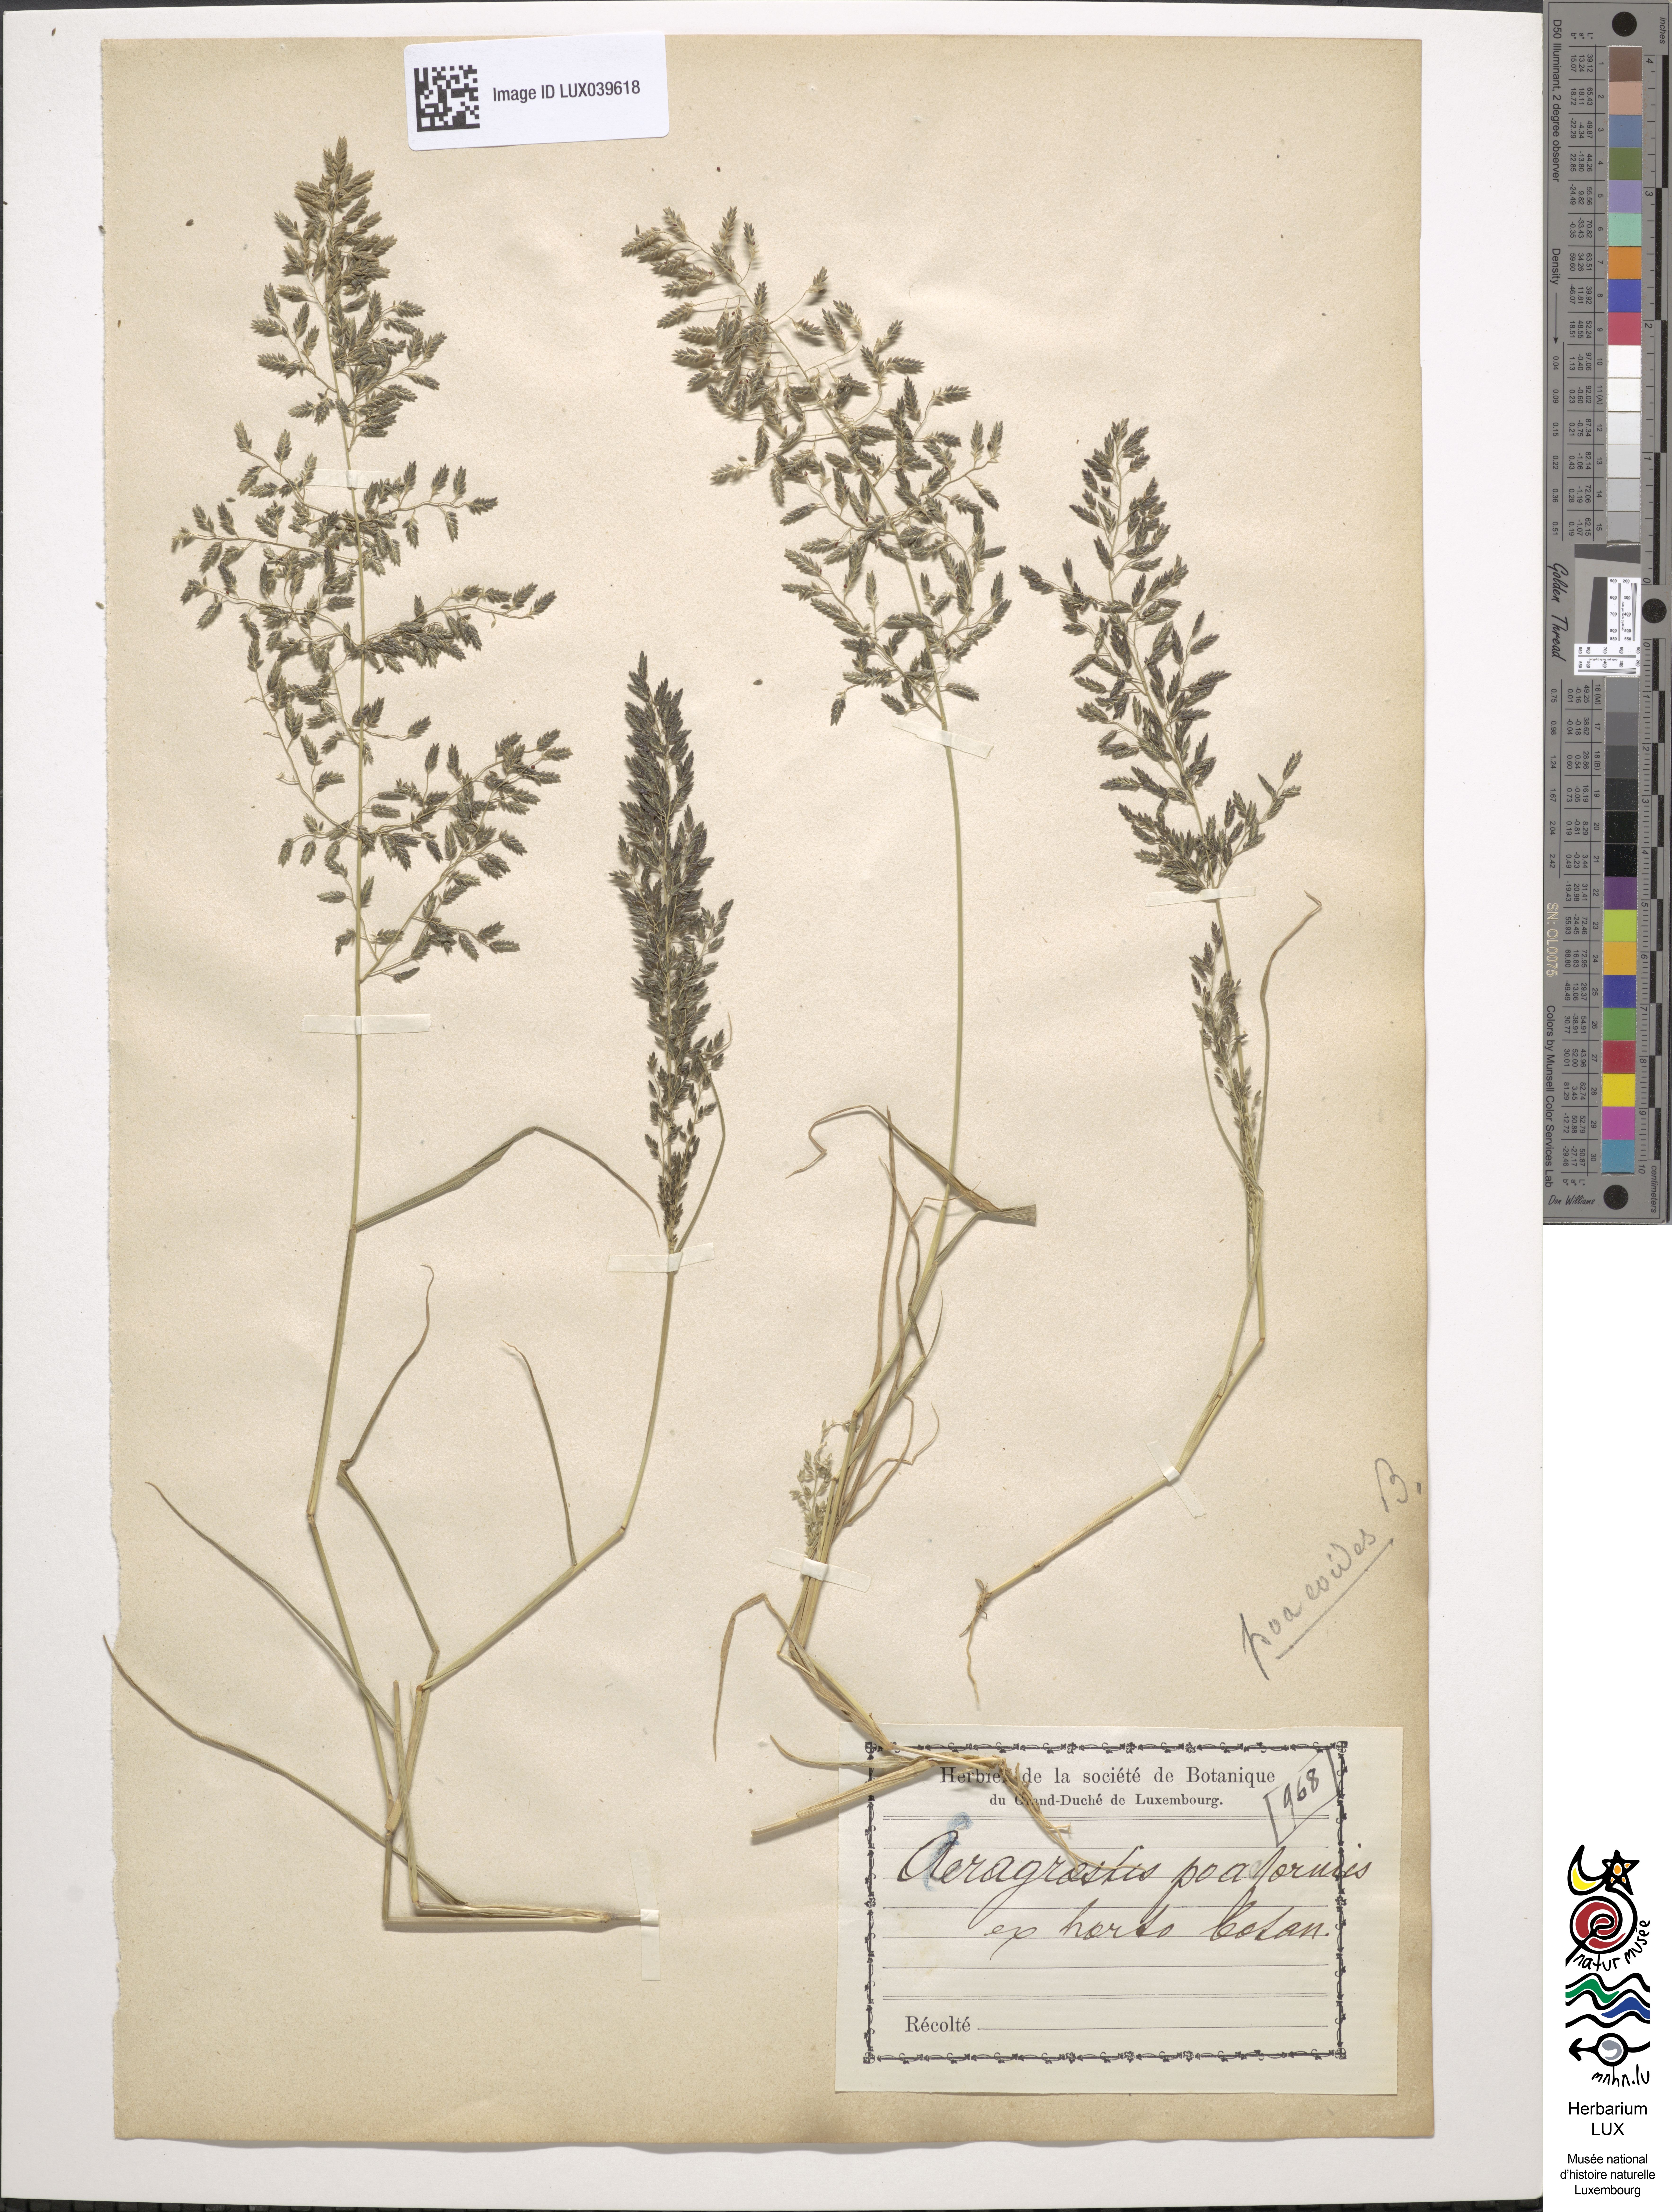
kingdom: Plantae
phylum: Tracheophyta
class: Liliopsida
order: Poales
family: Poaceae
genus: Eragrostis
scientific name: Eragrostis minor
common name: Small love-grass
